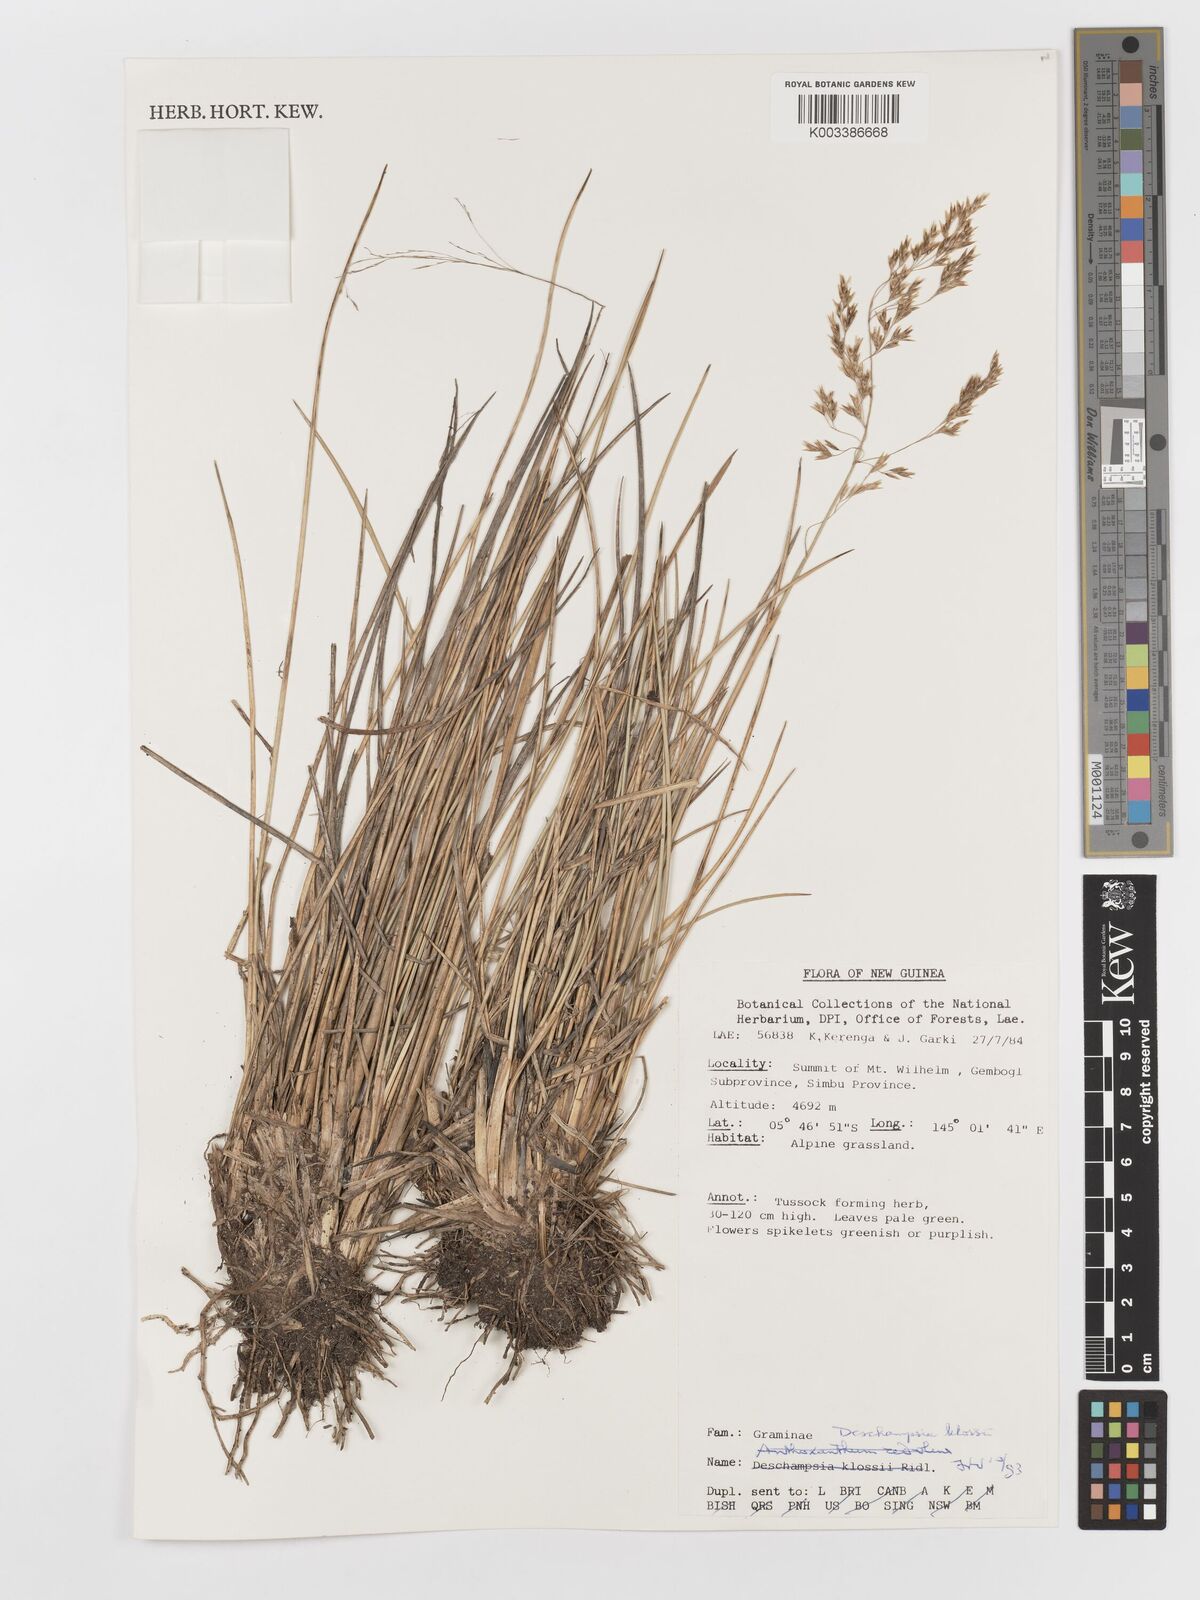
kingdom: Plantae
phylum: Tracheophyta
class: Liliopsida
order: Poales
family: Poaceae
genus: Deschampsia
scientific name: Deschampsia klossii
